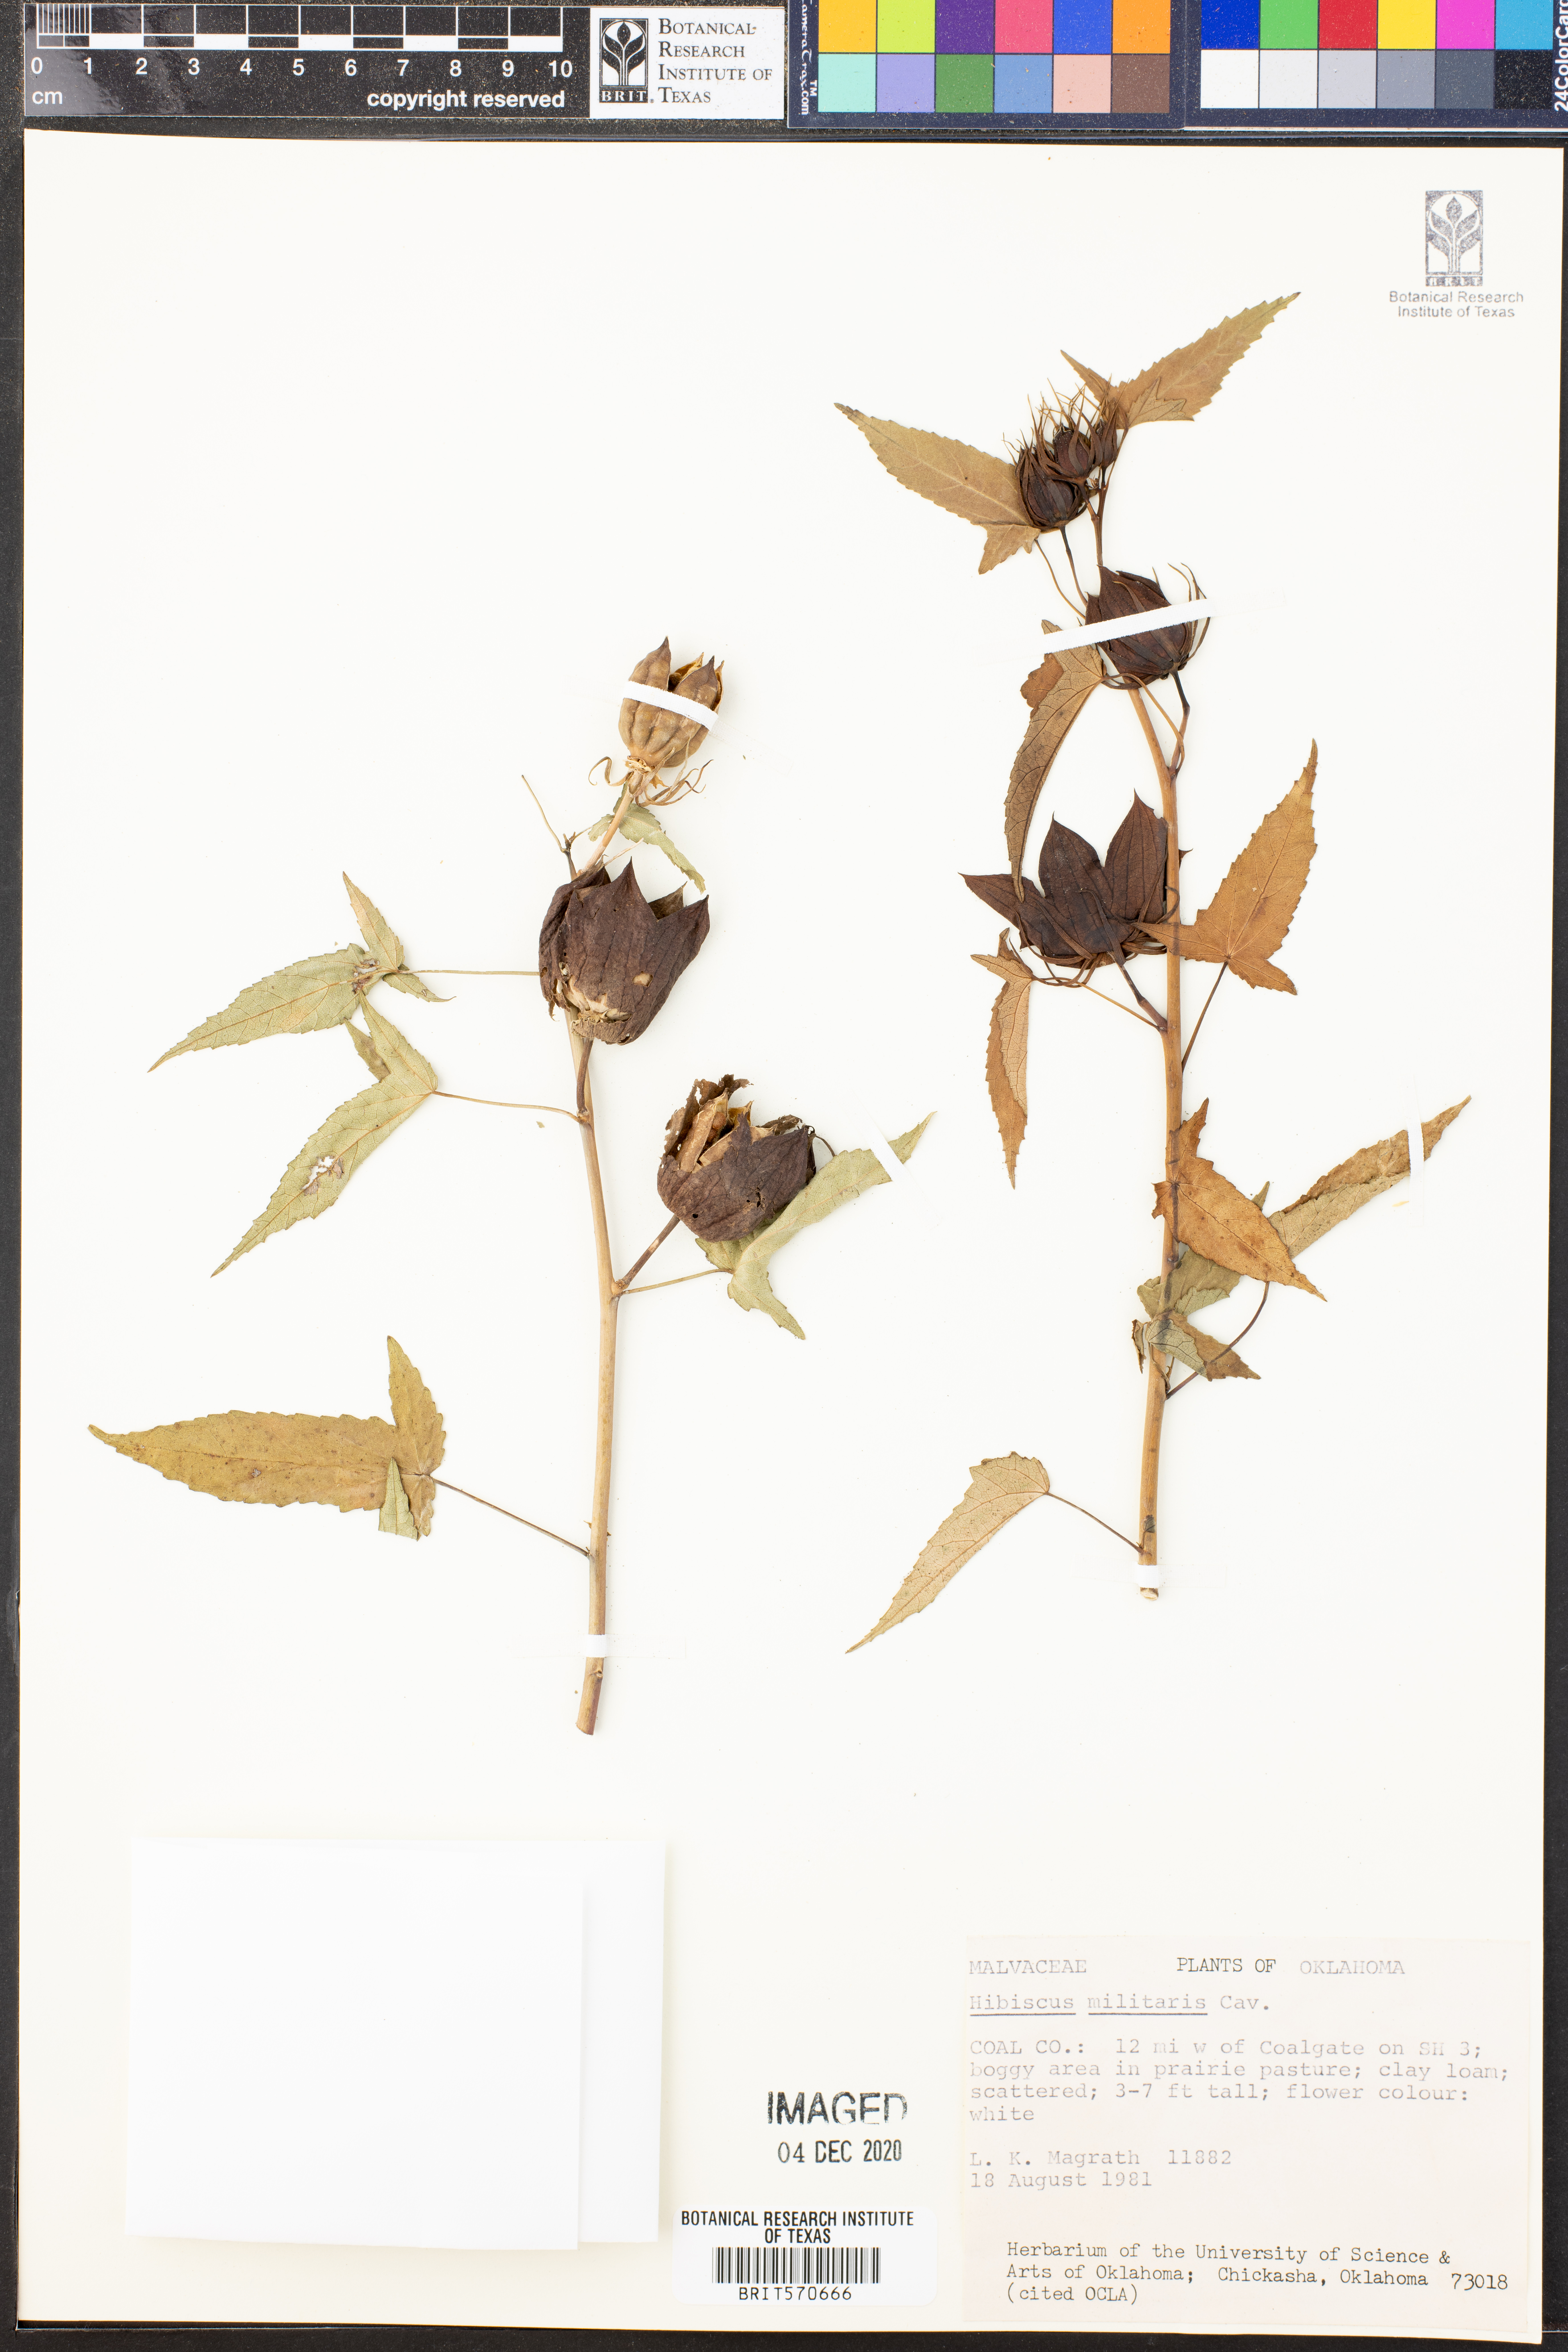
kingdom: Plantae
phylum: Tracheophyta
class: Magnoliopsida
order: Malvales
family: Malvaceae
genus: Hibiscus
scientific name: Hibiscus laevis
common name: Scarlet rose-mallow
